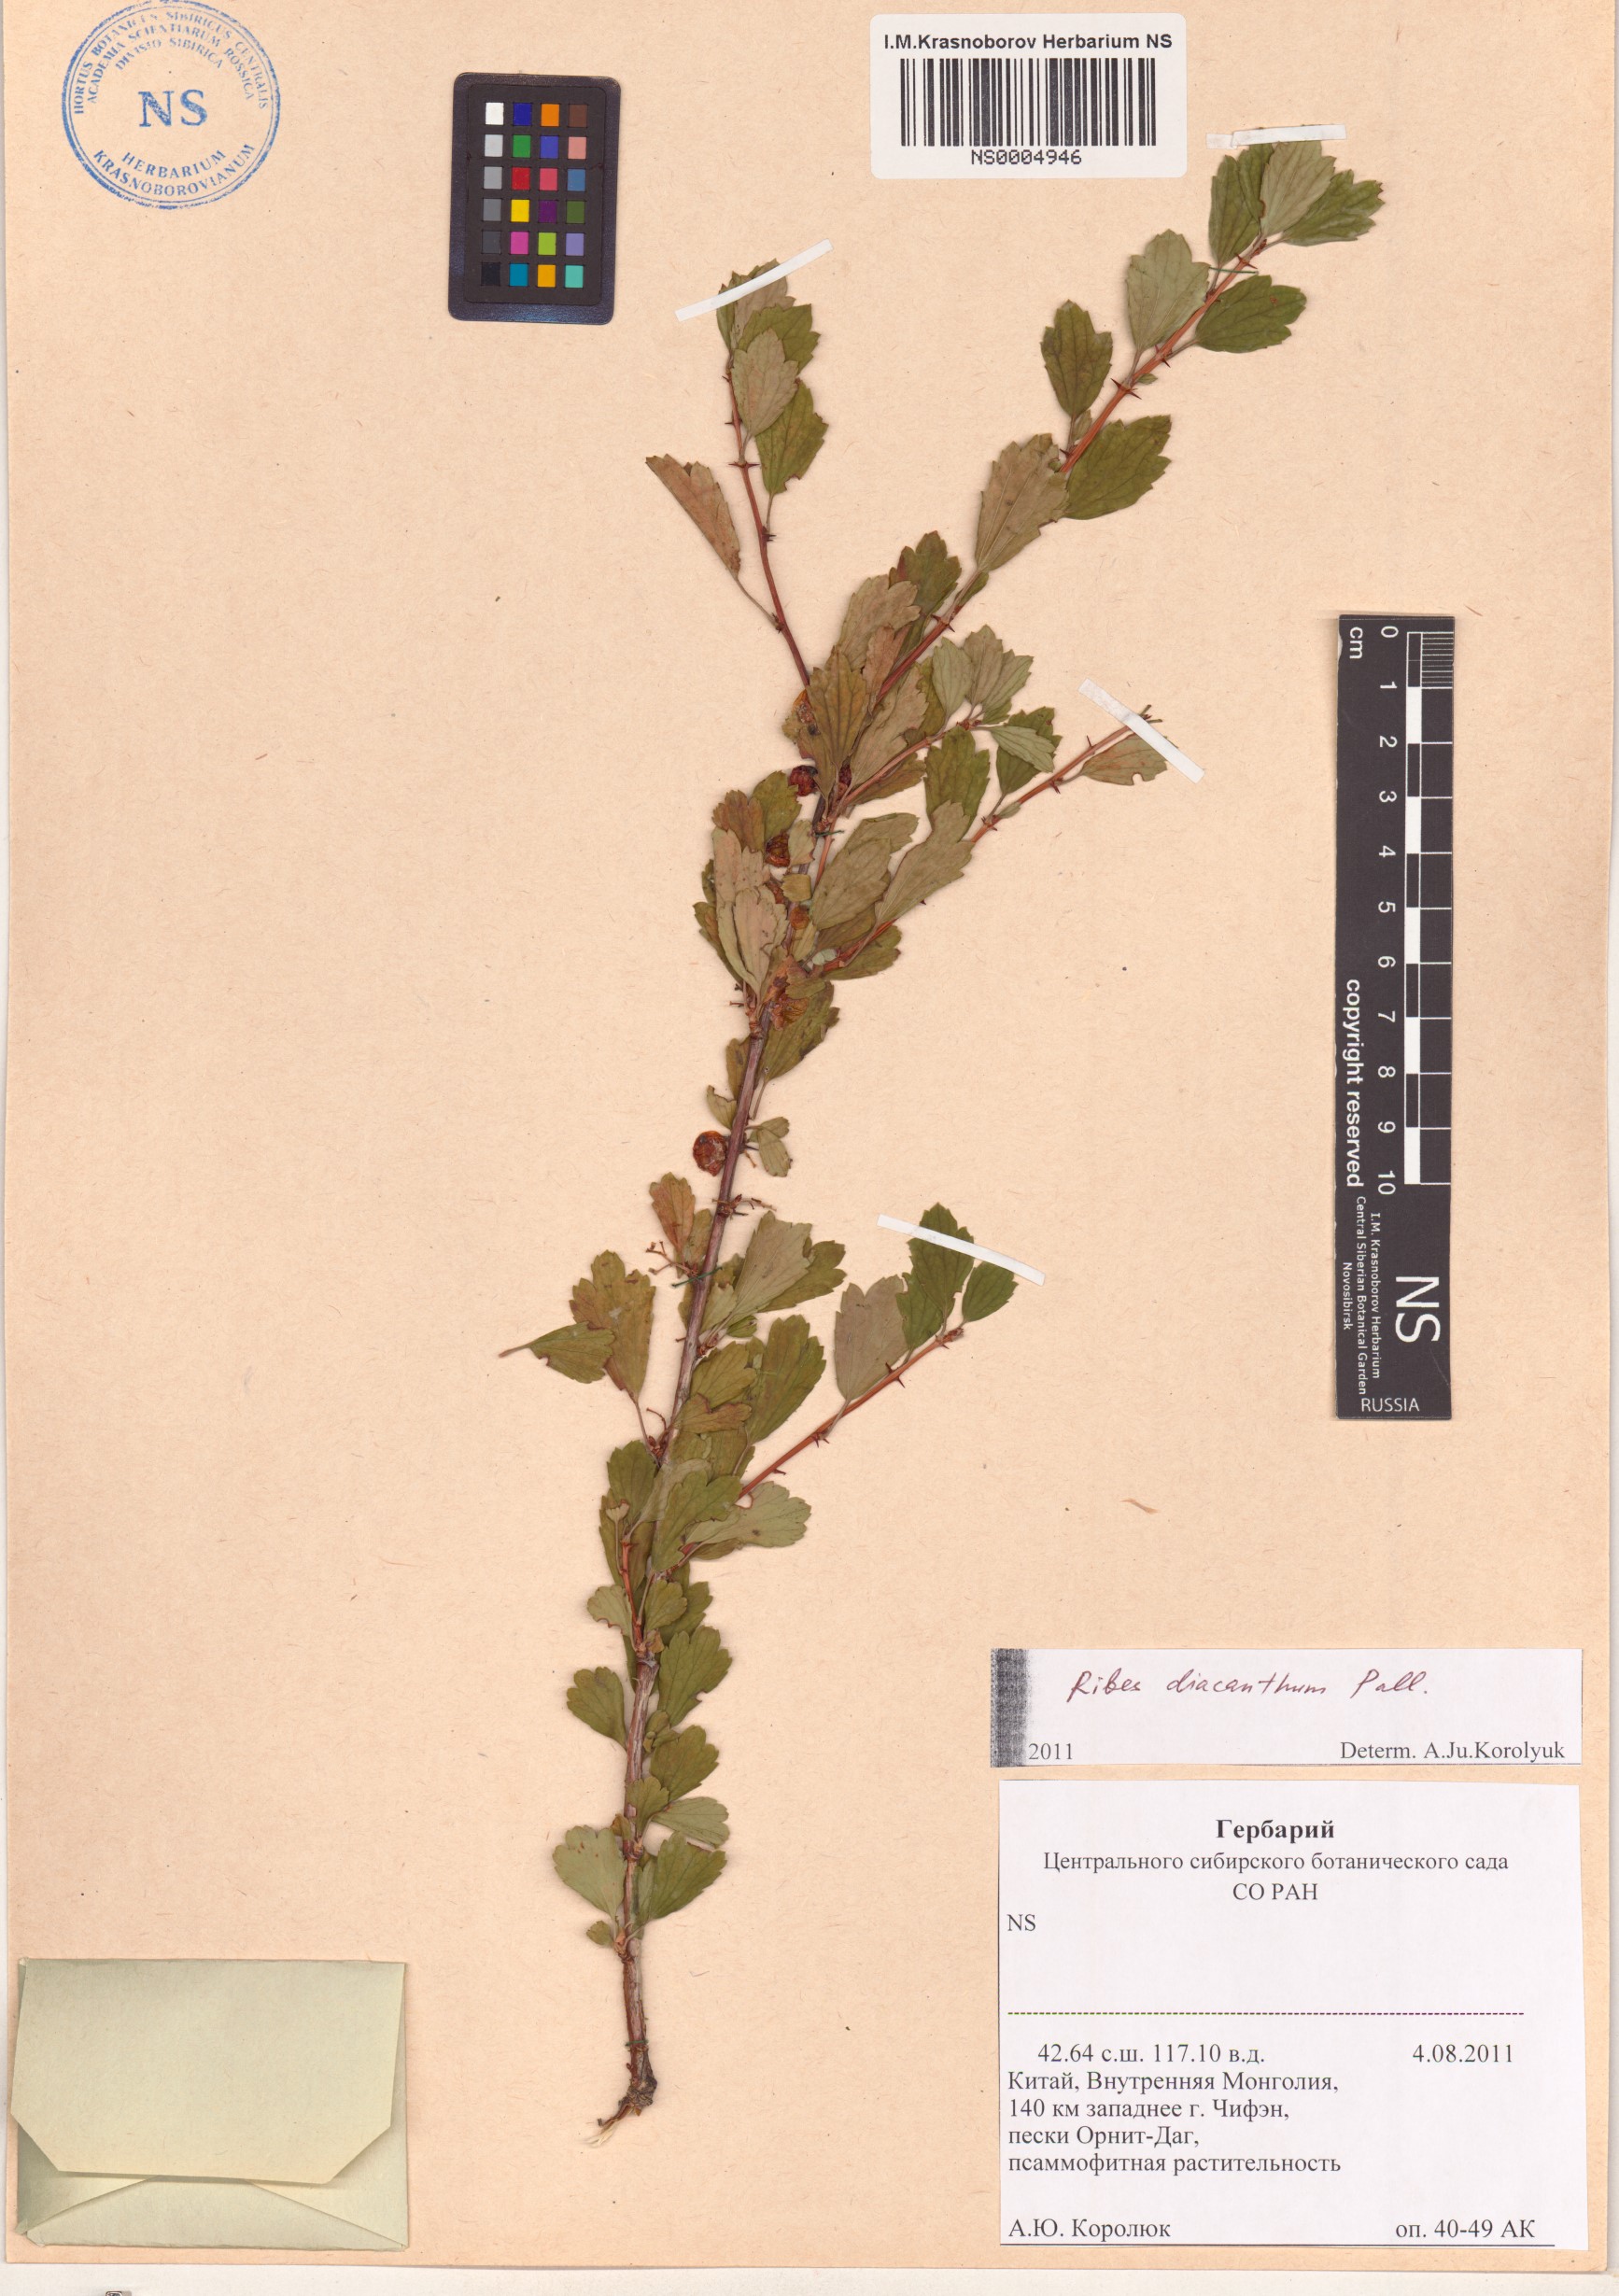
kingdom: Plantae
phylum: Tracheophyta
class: Magnoliopsida
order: Saxifragales
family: Grossulariaceae
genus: Ribes
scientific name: Ribes diacanthum
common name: Siberian currant
